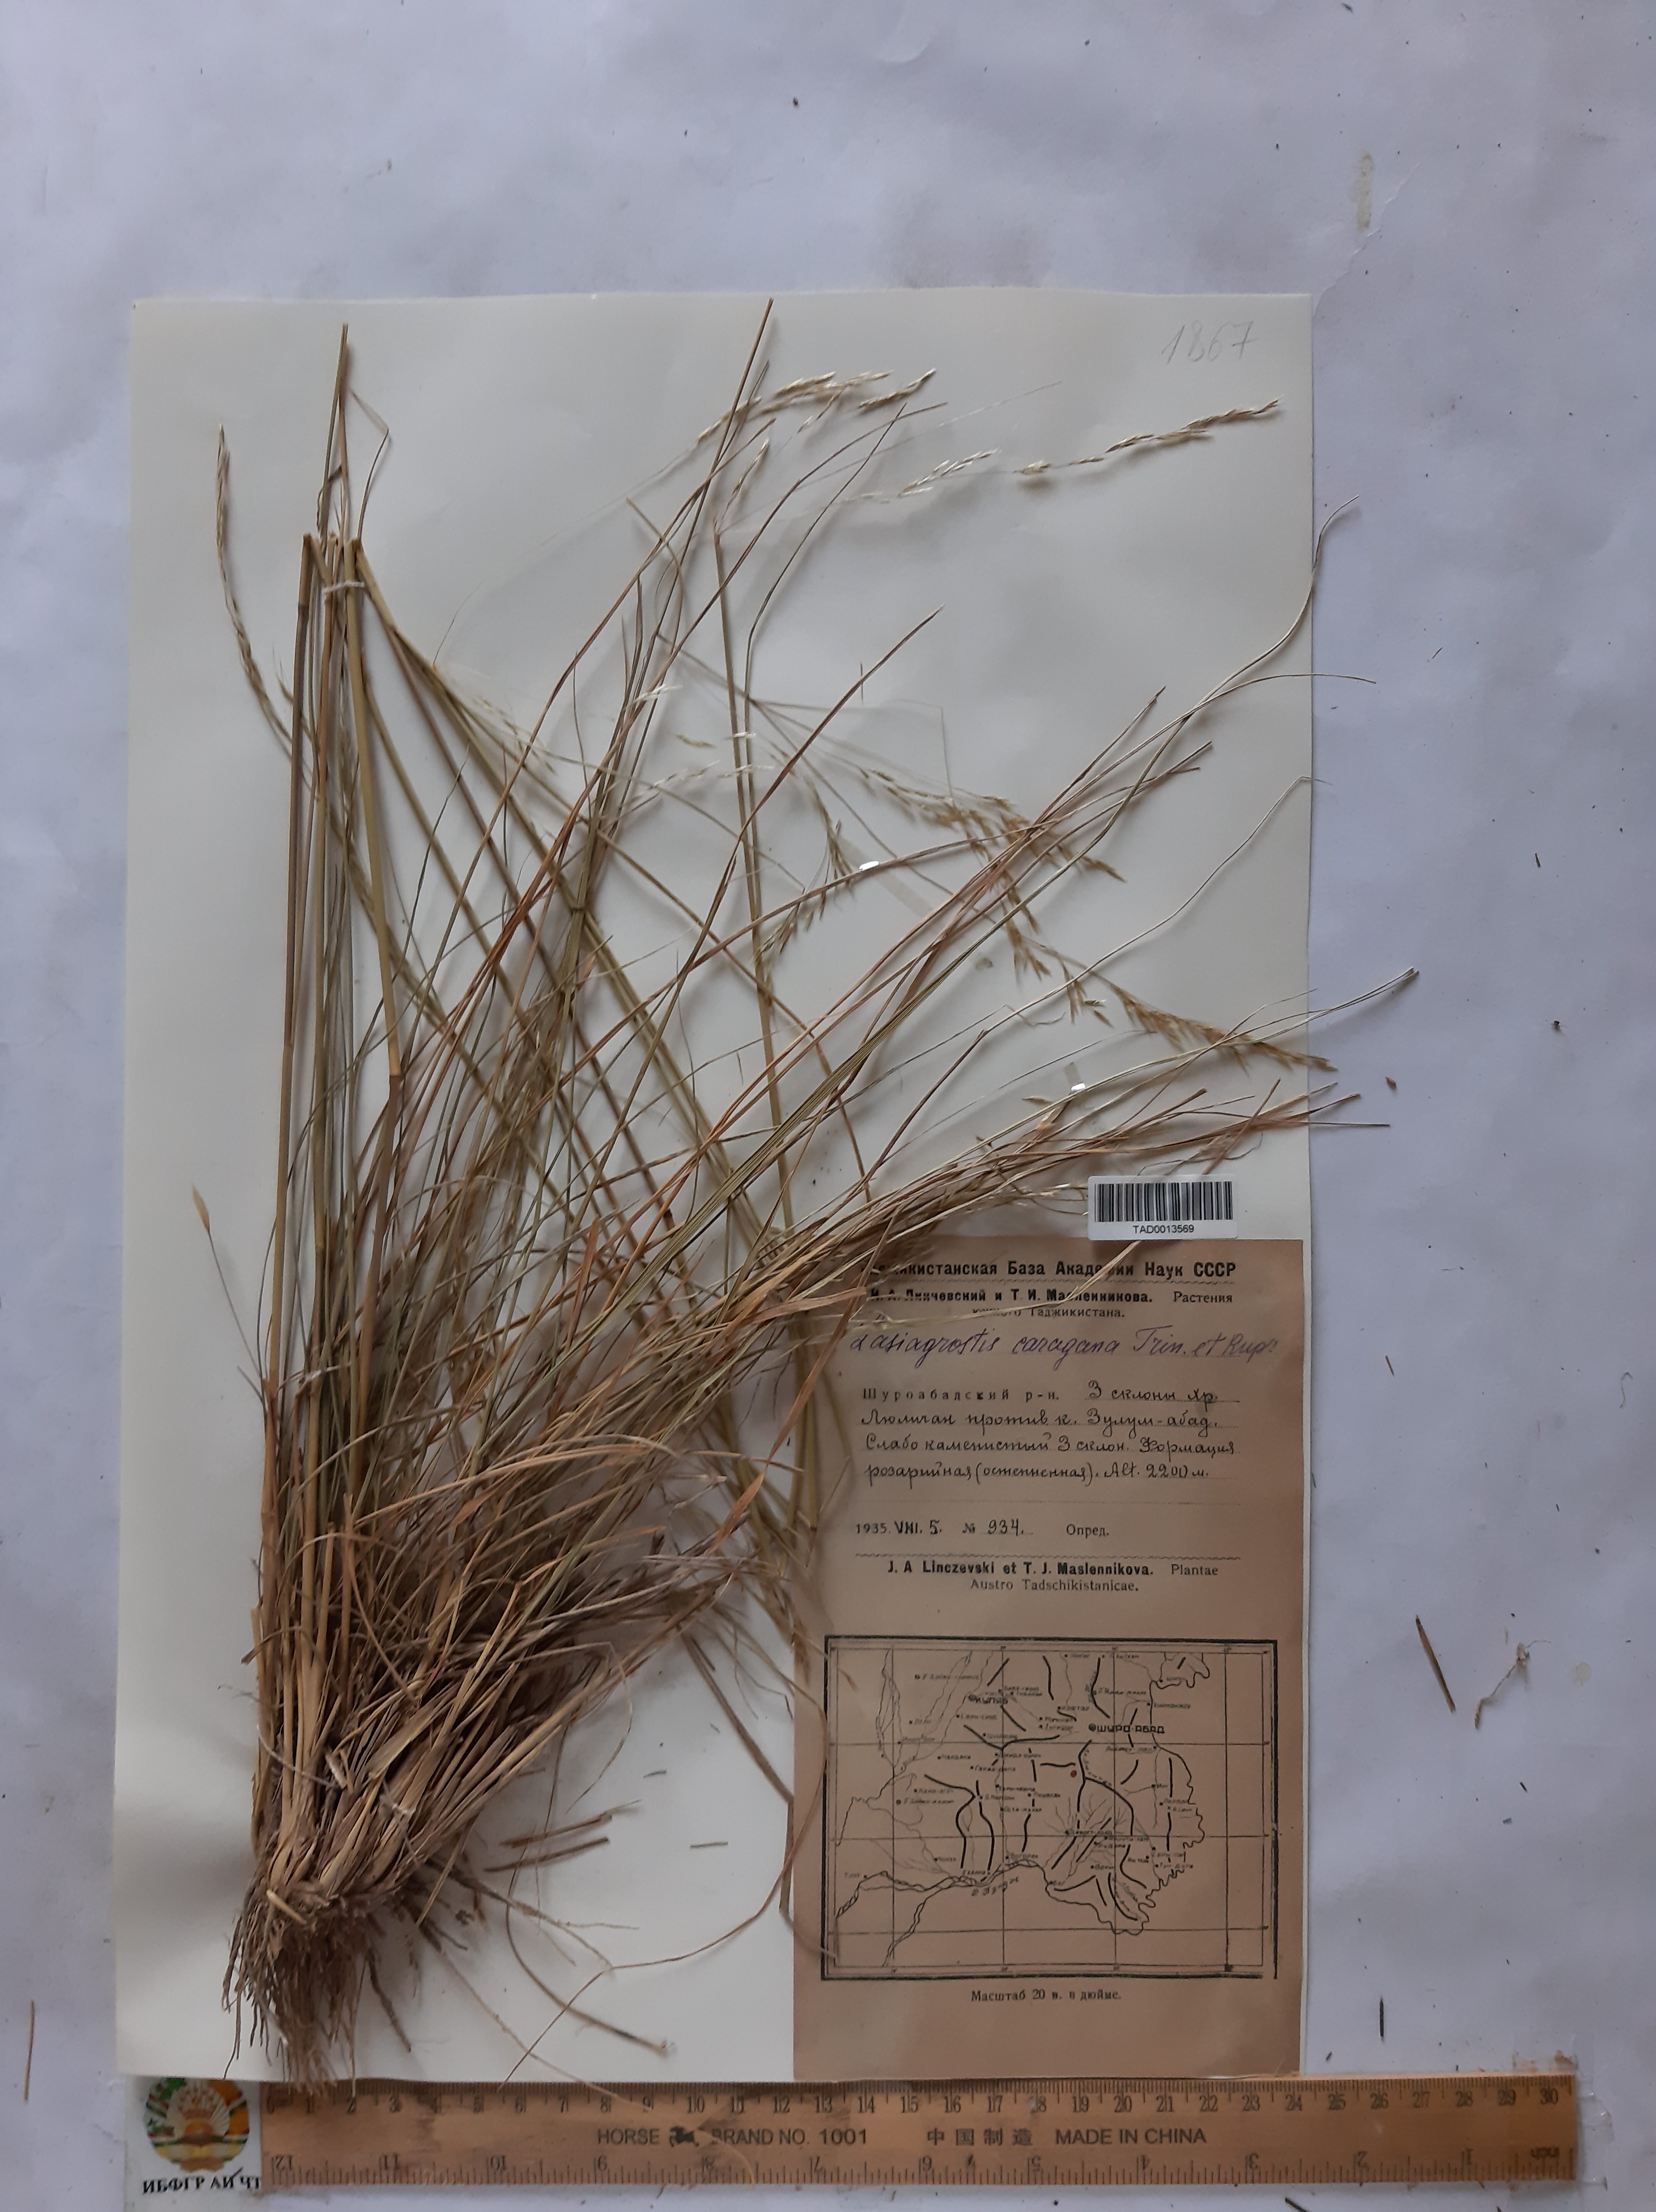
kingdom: Plantae
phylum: Tracheophyta
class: Liliopsida
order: Poales
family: Poaceae
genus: Stipa
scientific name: Stipa conferta
